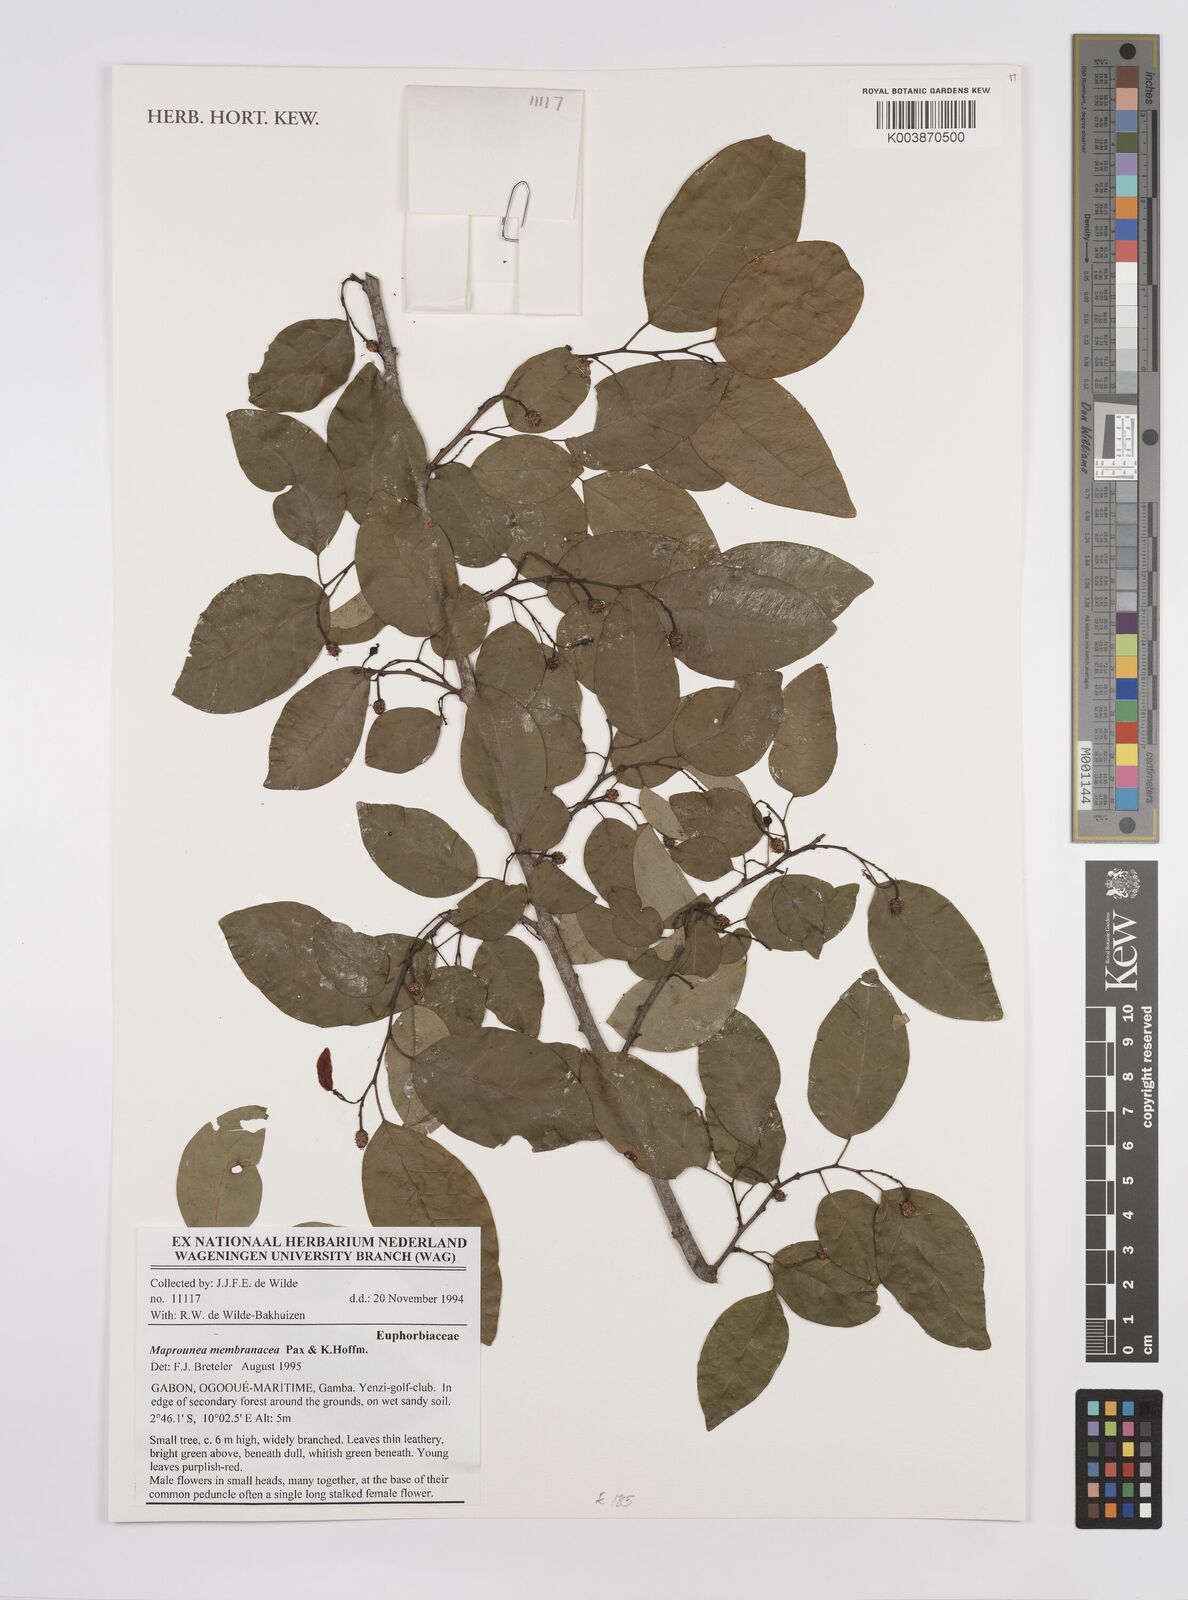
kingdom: Plantae
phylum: Tracheophyta
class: Magnoliopsida
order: Malpighiales
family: Euphorbiaceae
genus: Maprounea
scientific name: Maprounea membranacea
